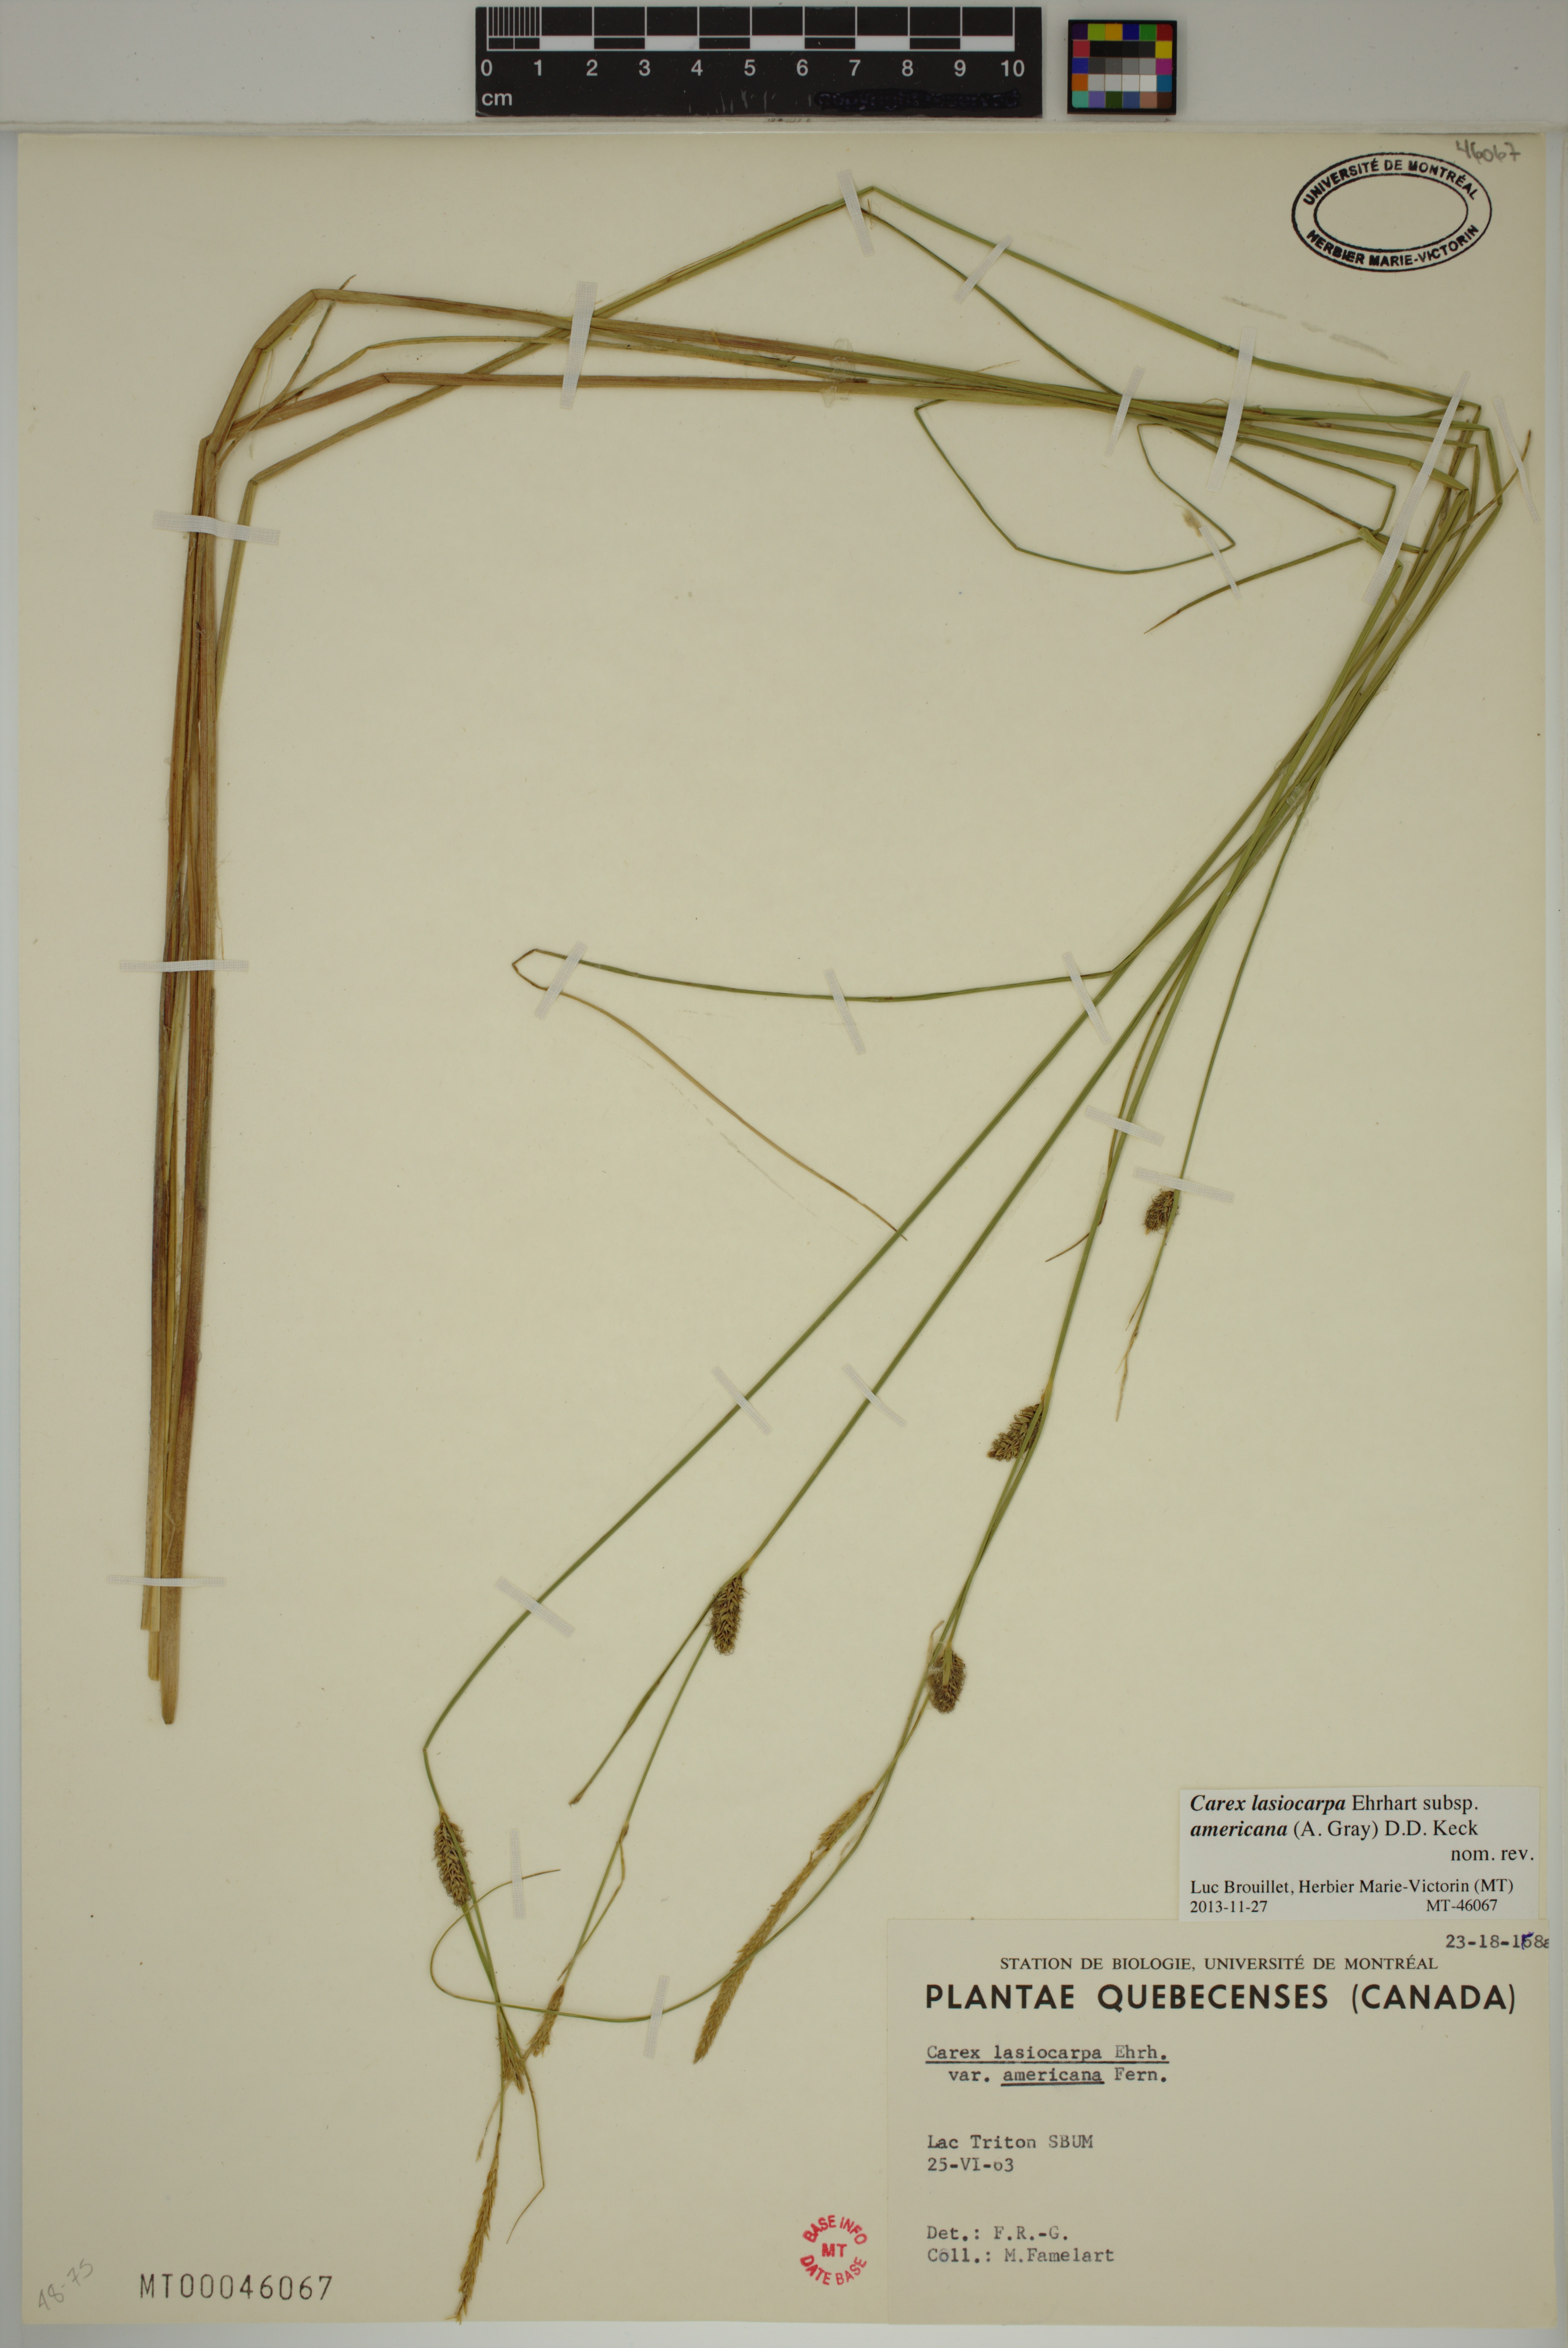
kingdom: Plantae
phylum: Tracheophyta
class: Liliopsida
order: Poales
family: Cyperaceae
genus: Carex
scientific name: Carex lasiocarpa
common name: Slender sedge
